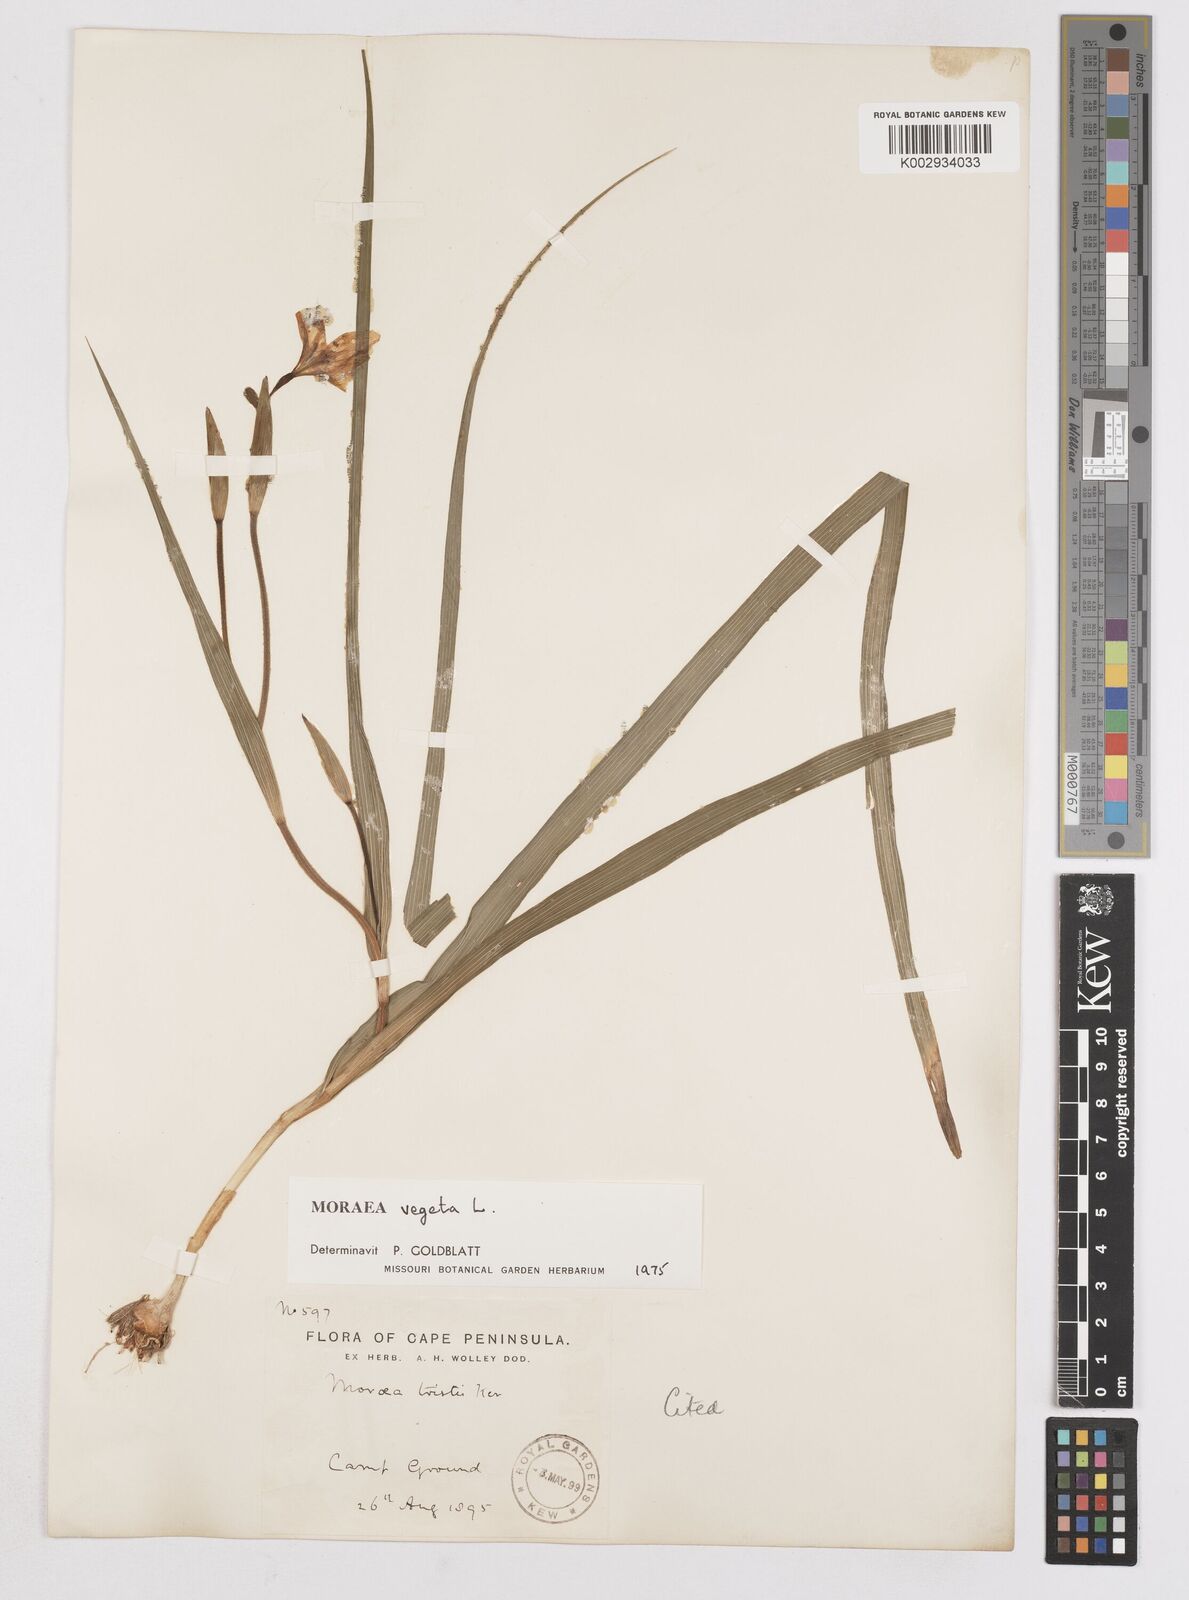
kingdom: Plantae
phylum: Tracheophyta
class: Liliopsida
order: Asparagales
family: Iridaceae
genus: Moraea
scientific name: Moraea vegeta
